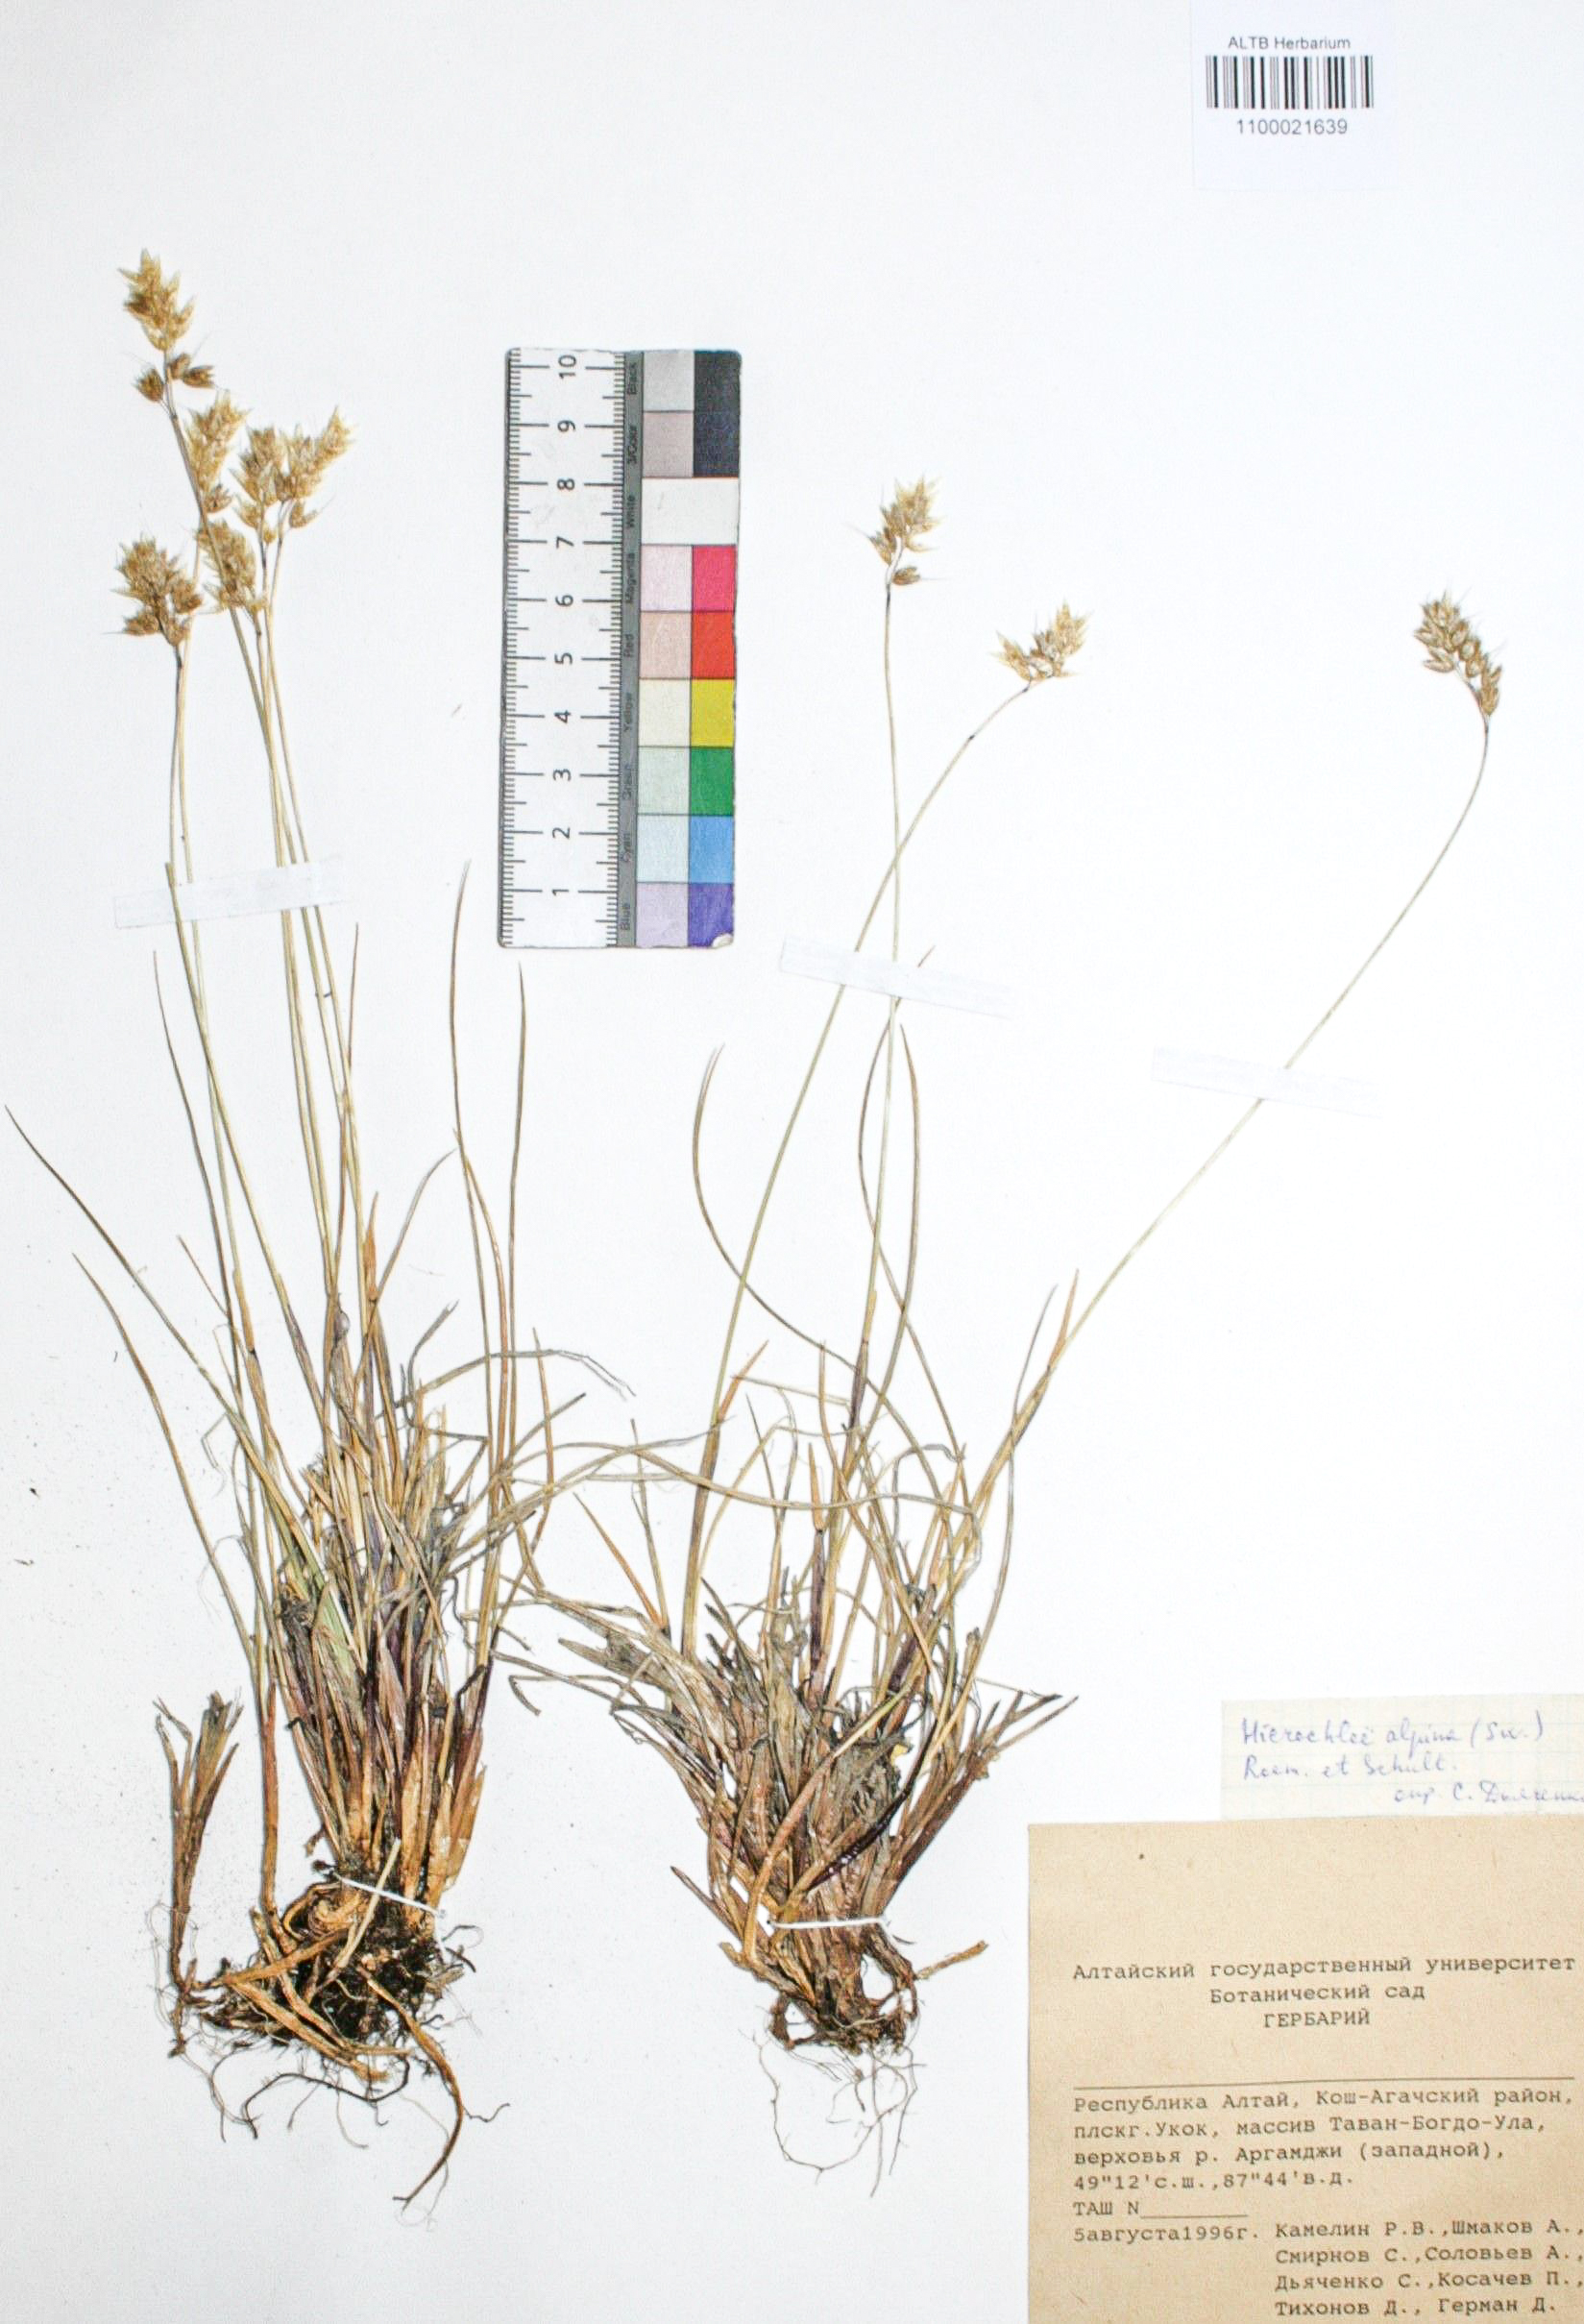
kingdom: Plantae
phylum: Tracheophyta
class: Liliopsida
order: Poales
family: Poaceae
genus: Anthoxanthum
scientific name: Anthoxanthum monticola
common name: Alpine sweetgrass
